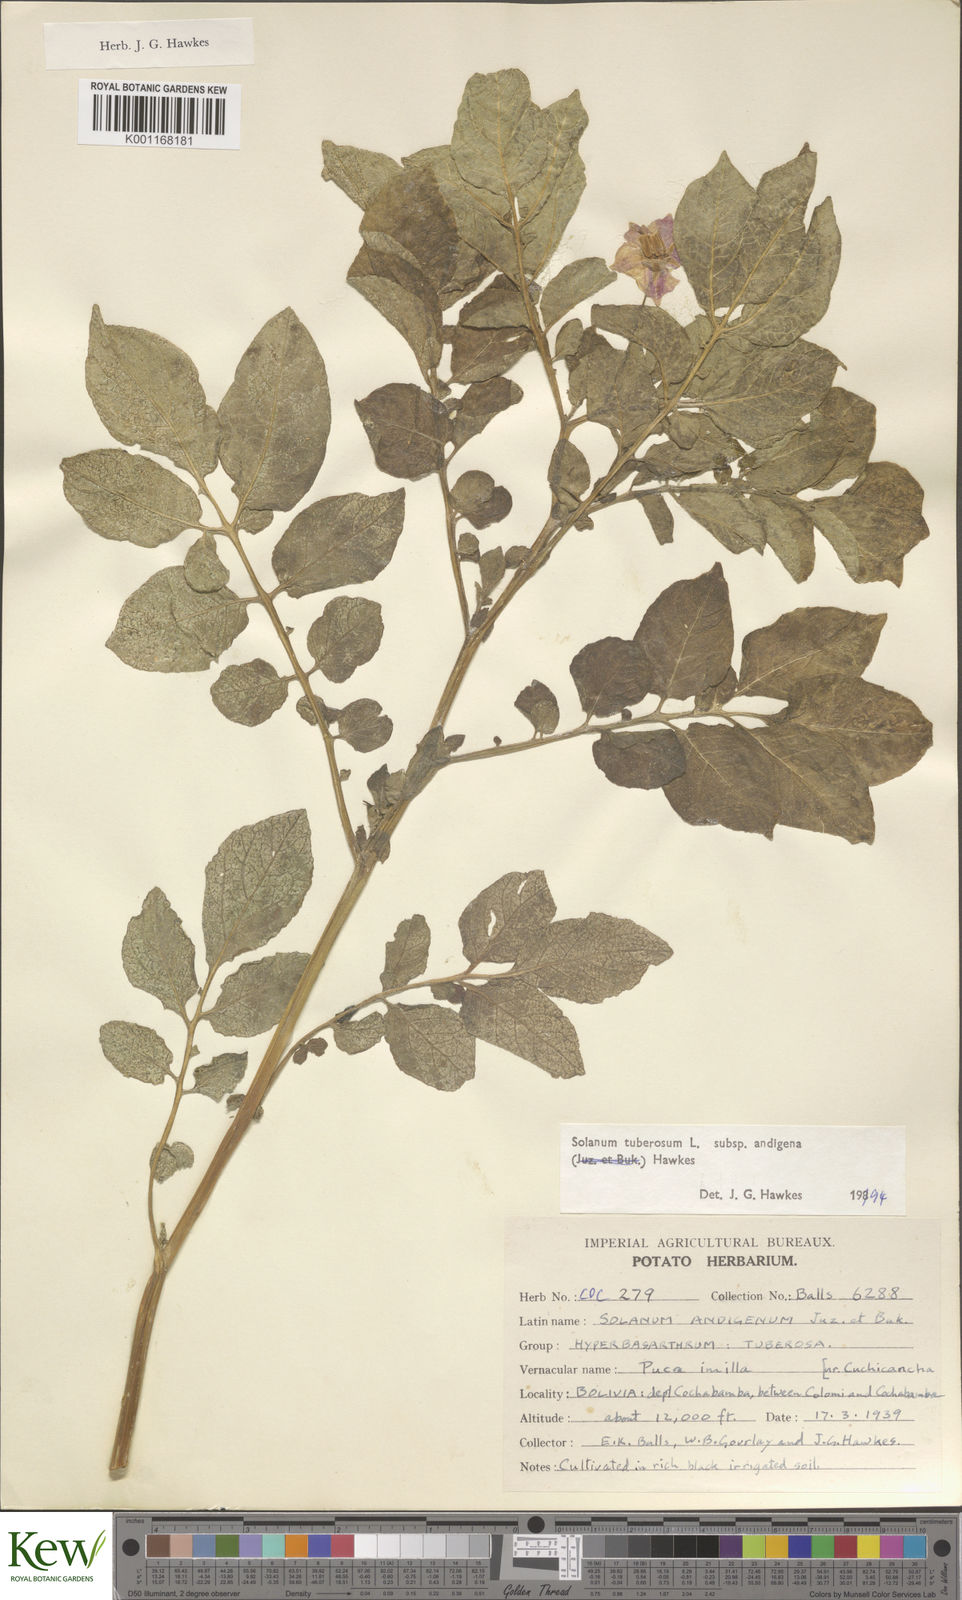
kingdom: Plantae
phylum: Tracheophyta
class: Magnoliopsida
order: Solanales
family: Solanaceae
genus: Solanum
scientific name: Solanum tuberosum
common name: Potato
